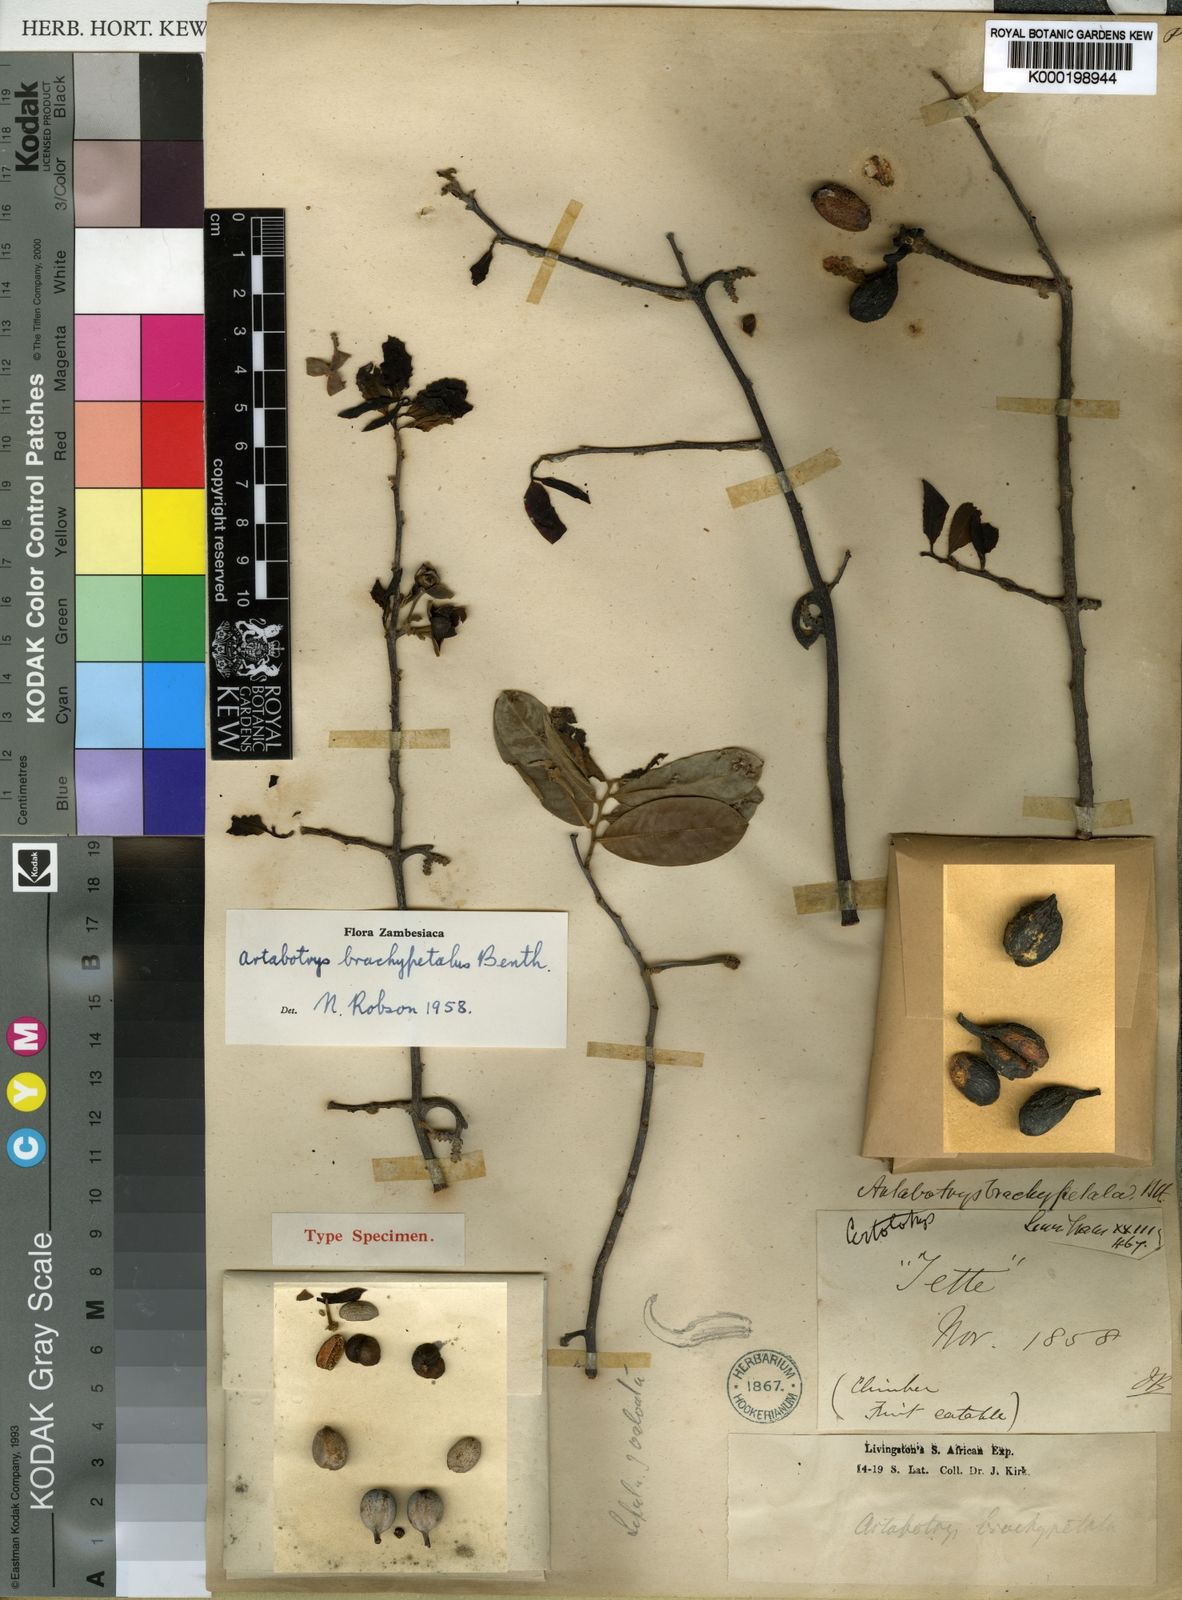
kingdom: Plantae
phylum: Tracheophyta
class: Magnoliopsida
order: Magnoliales
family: Annonaceae
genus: Artabotrys
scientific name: Artabotrys brachypetalus
